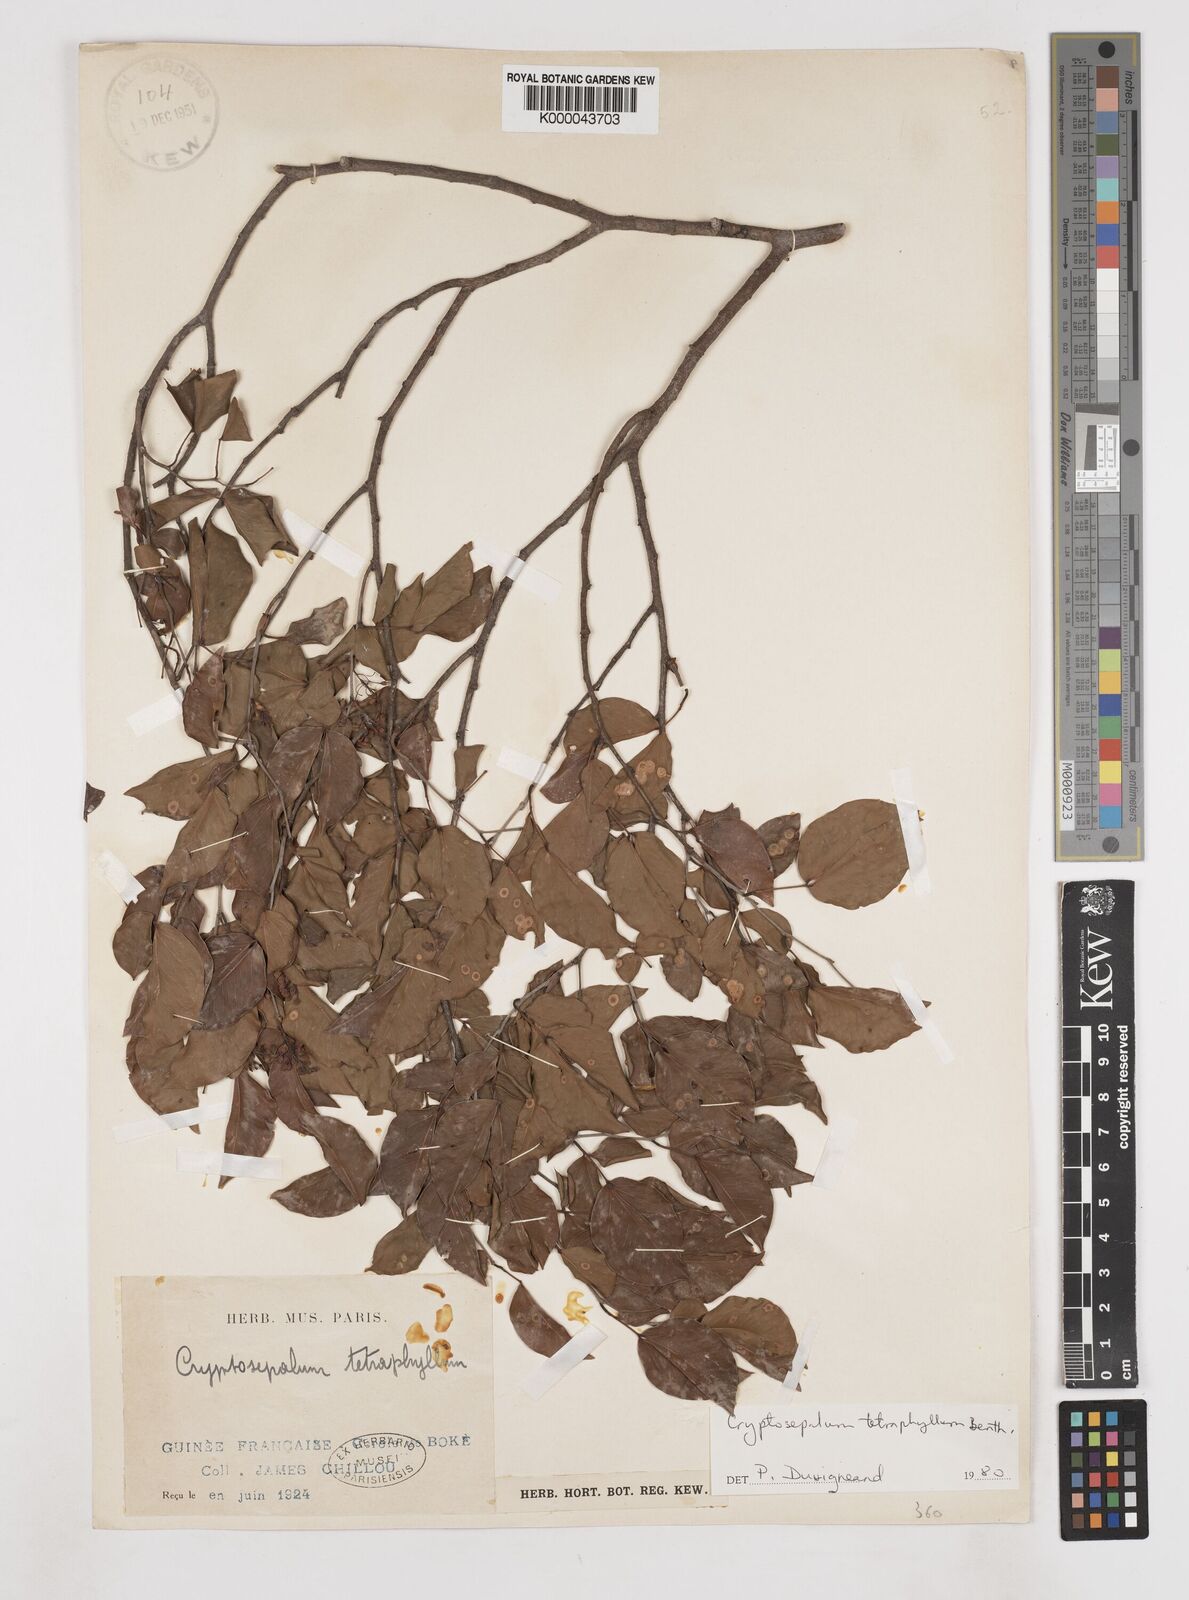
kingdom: Plantae
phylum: Tracheophyta
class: Magnoliopsida
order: Fabales
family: Fabaceae
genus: Cryptosepalum
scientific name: Cryptosepalum tetraphyllum
